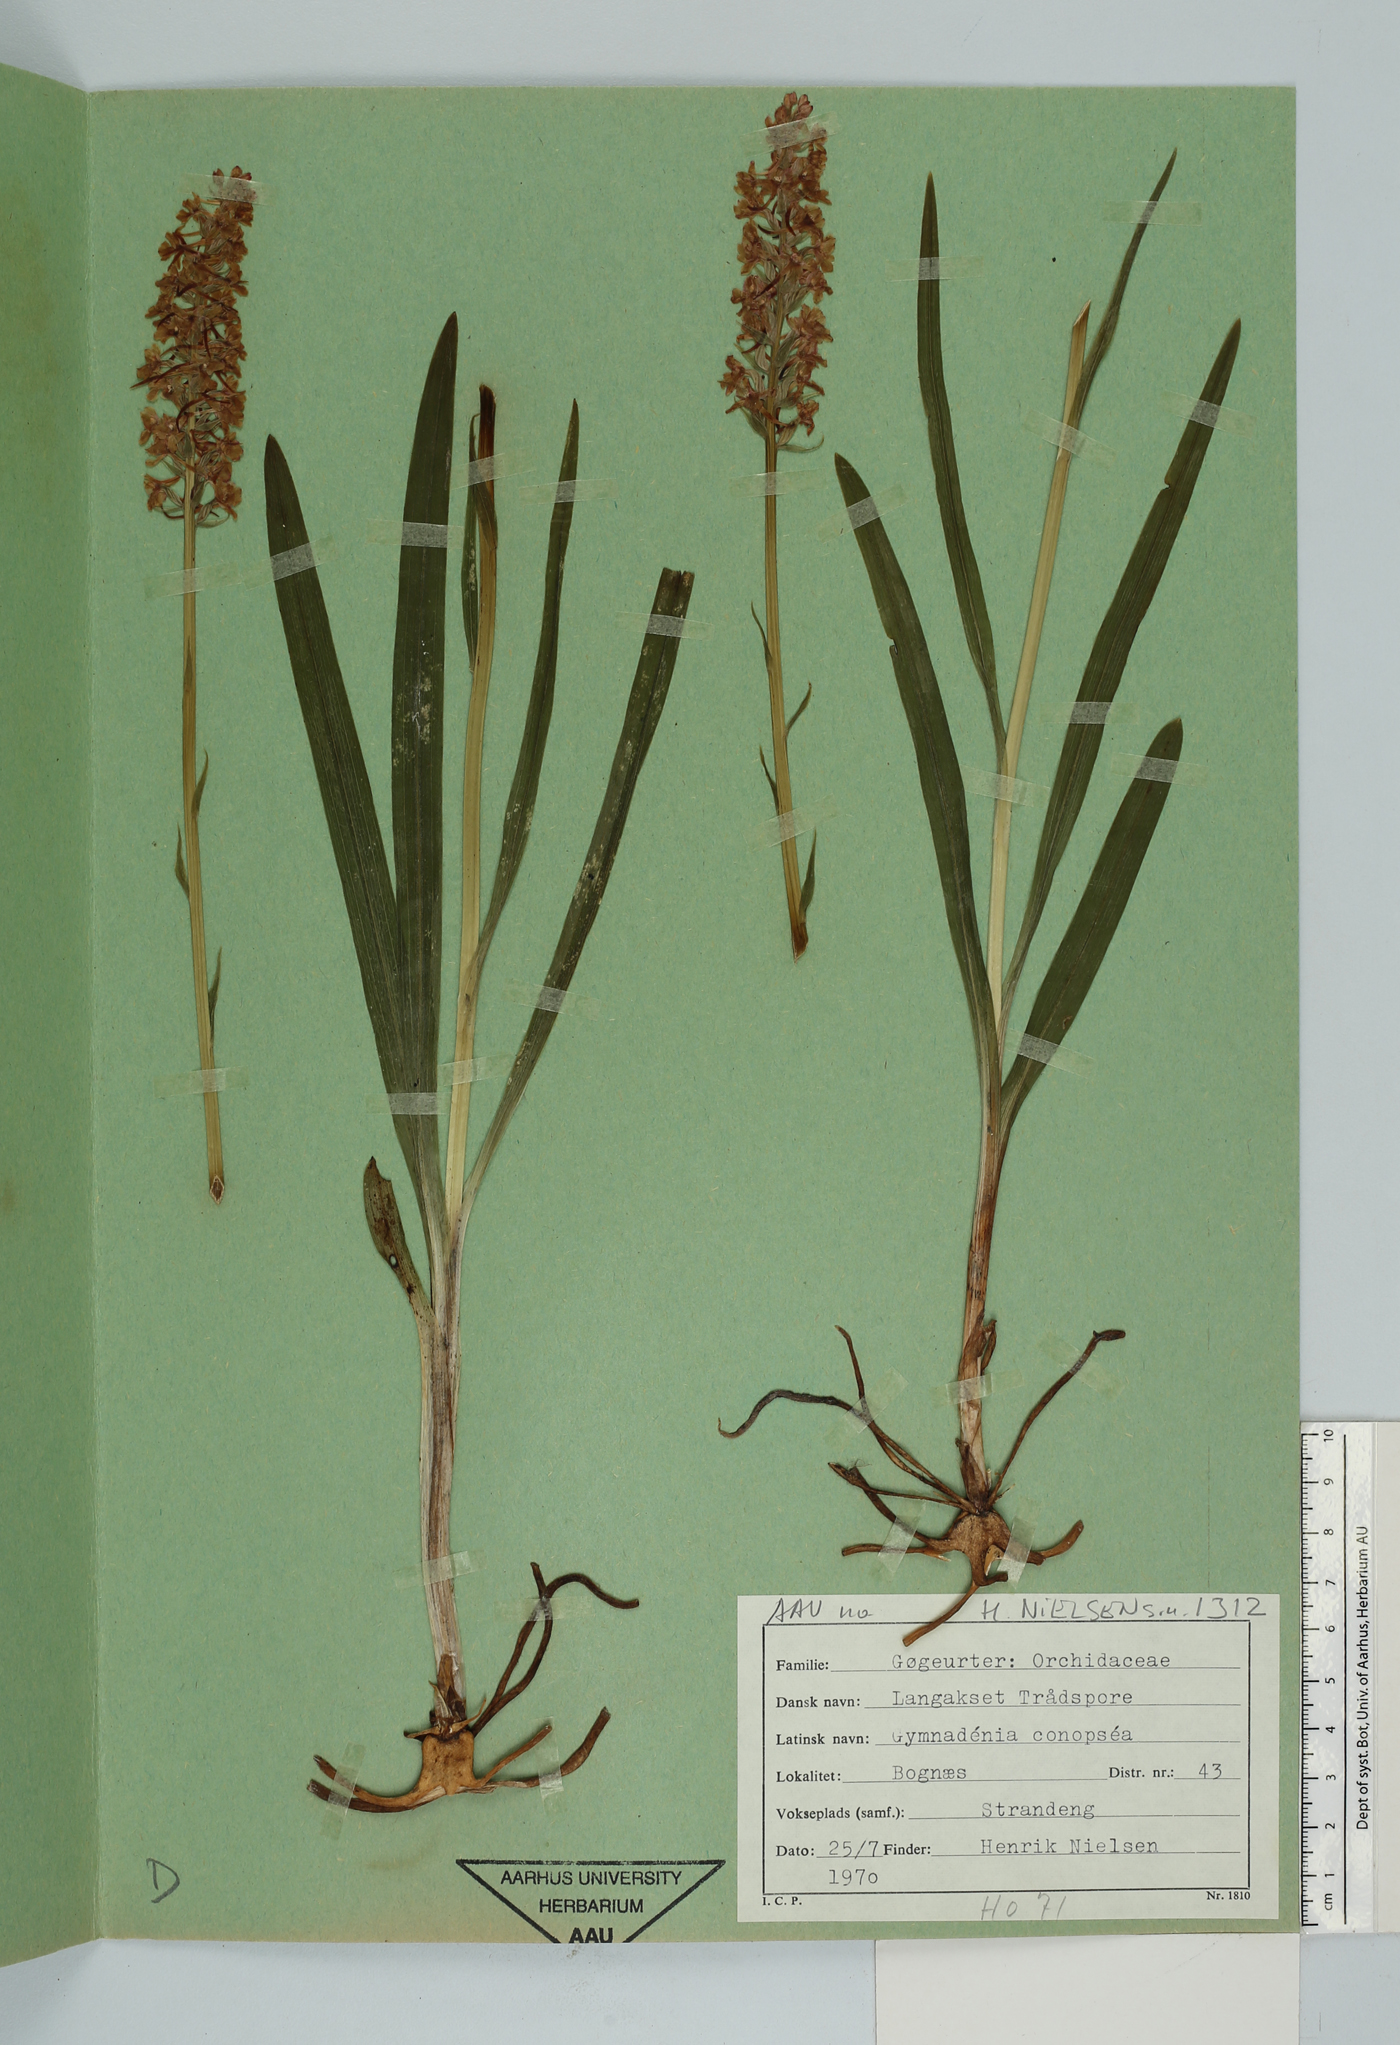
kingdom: Plantae
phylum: Tracheophyta
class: Liliopsida
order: Asparagales
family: Orchidaceae
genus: Gymnadenia
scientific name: Gymnadenia conopsea
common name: Fragrant orchid
